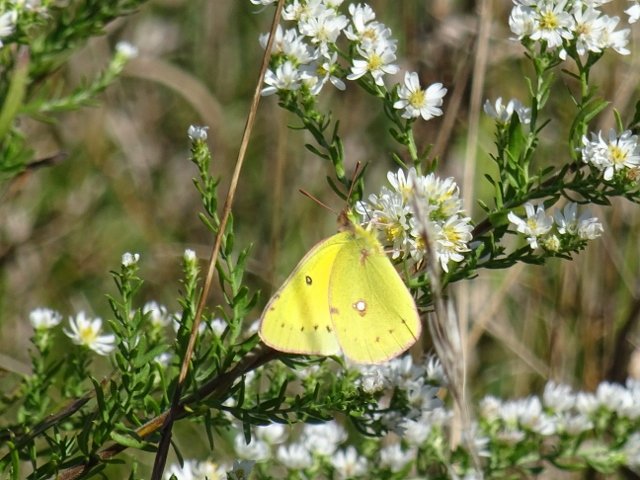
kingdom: Animalia
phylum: Arthropoda
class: Insecta
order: Lepidoptera
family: Pieridae
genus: Colias
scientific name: Colias philodice
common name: Clouded Sulphur
